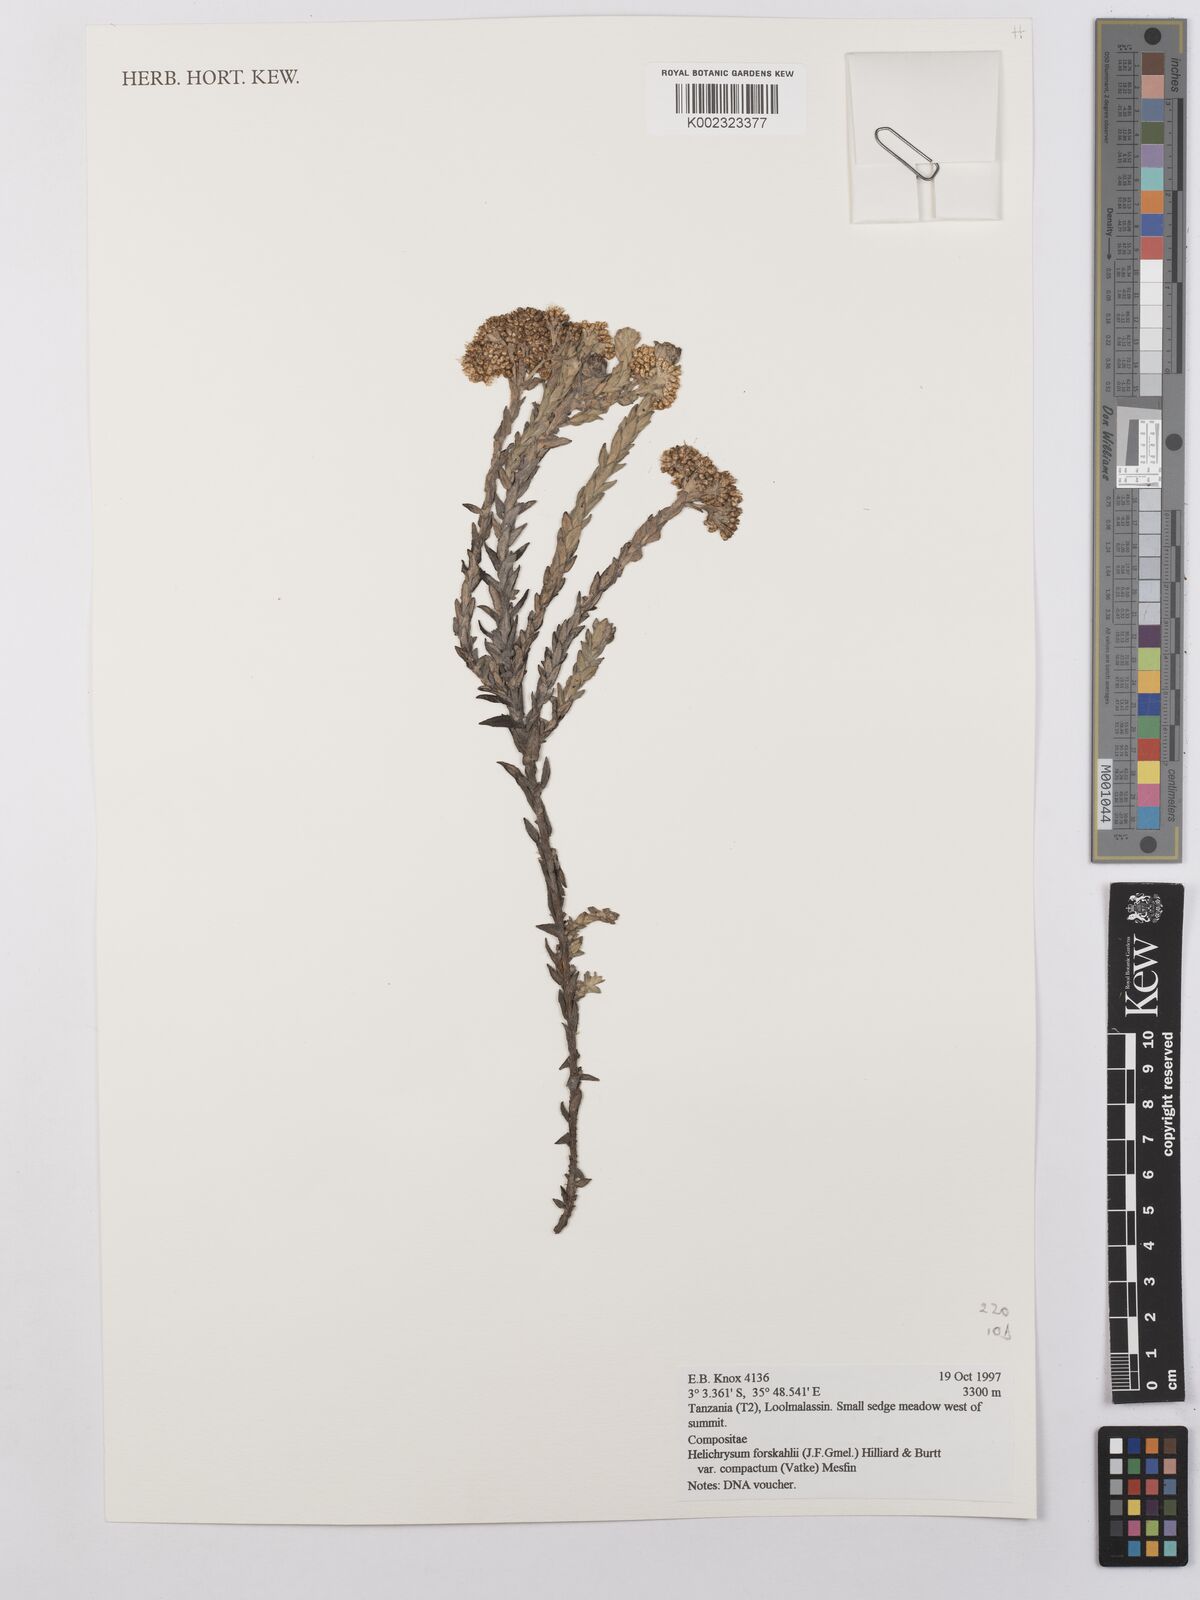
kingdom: Plantae
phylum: Tracheophyta
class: Magnoliopsida
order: Asterales
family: Asteraceae
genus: Helichrysum
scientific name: Helichrysum forskahlii
